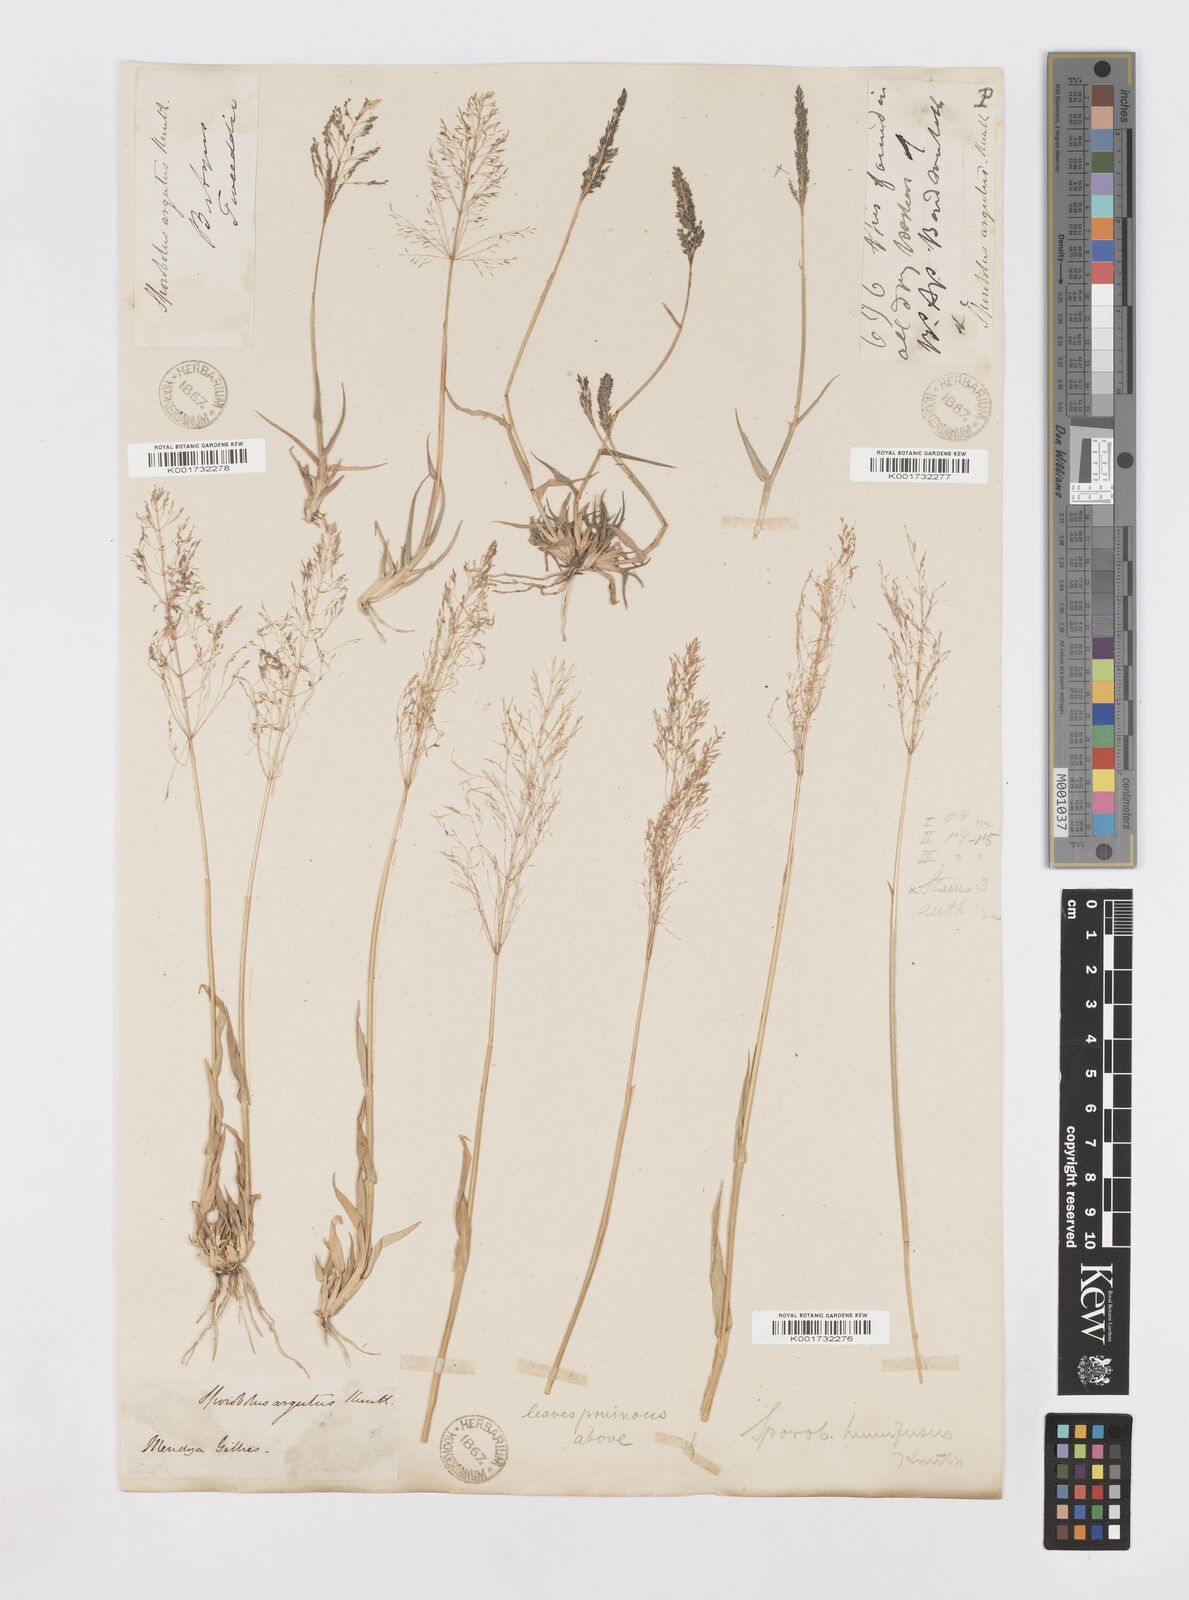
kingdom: Plantae
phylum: Tracheophyta
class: Liliopsida
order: Poales
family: Poaceae
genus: Sporobolus
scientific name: Sporobolus pyramidatus
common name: Whorled dropseed
